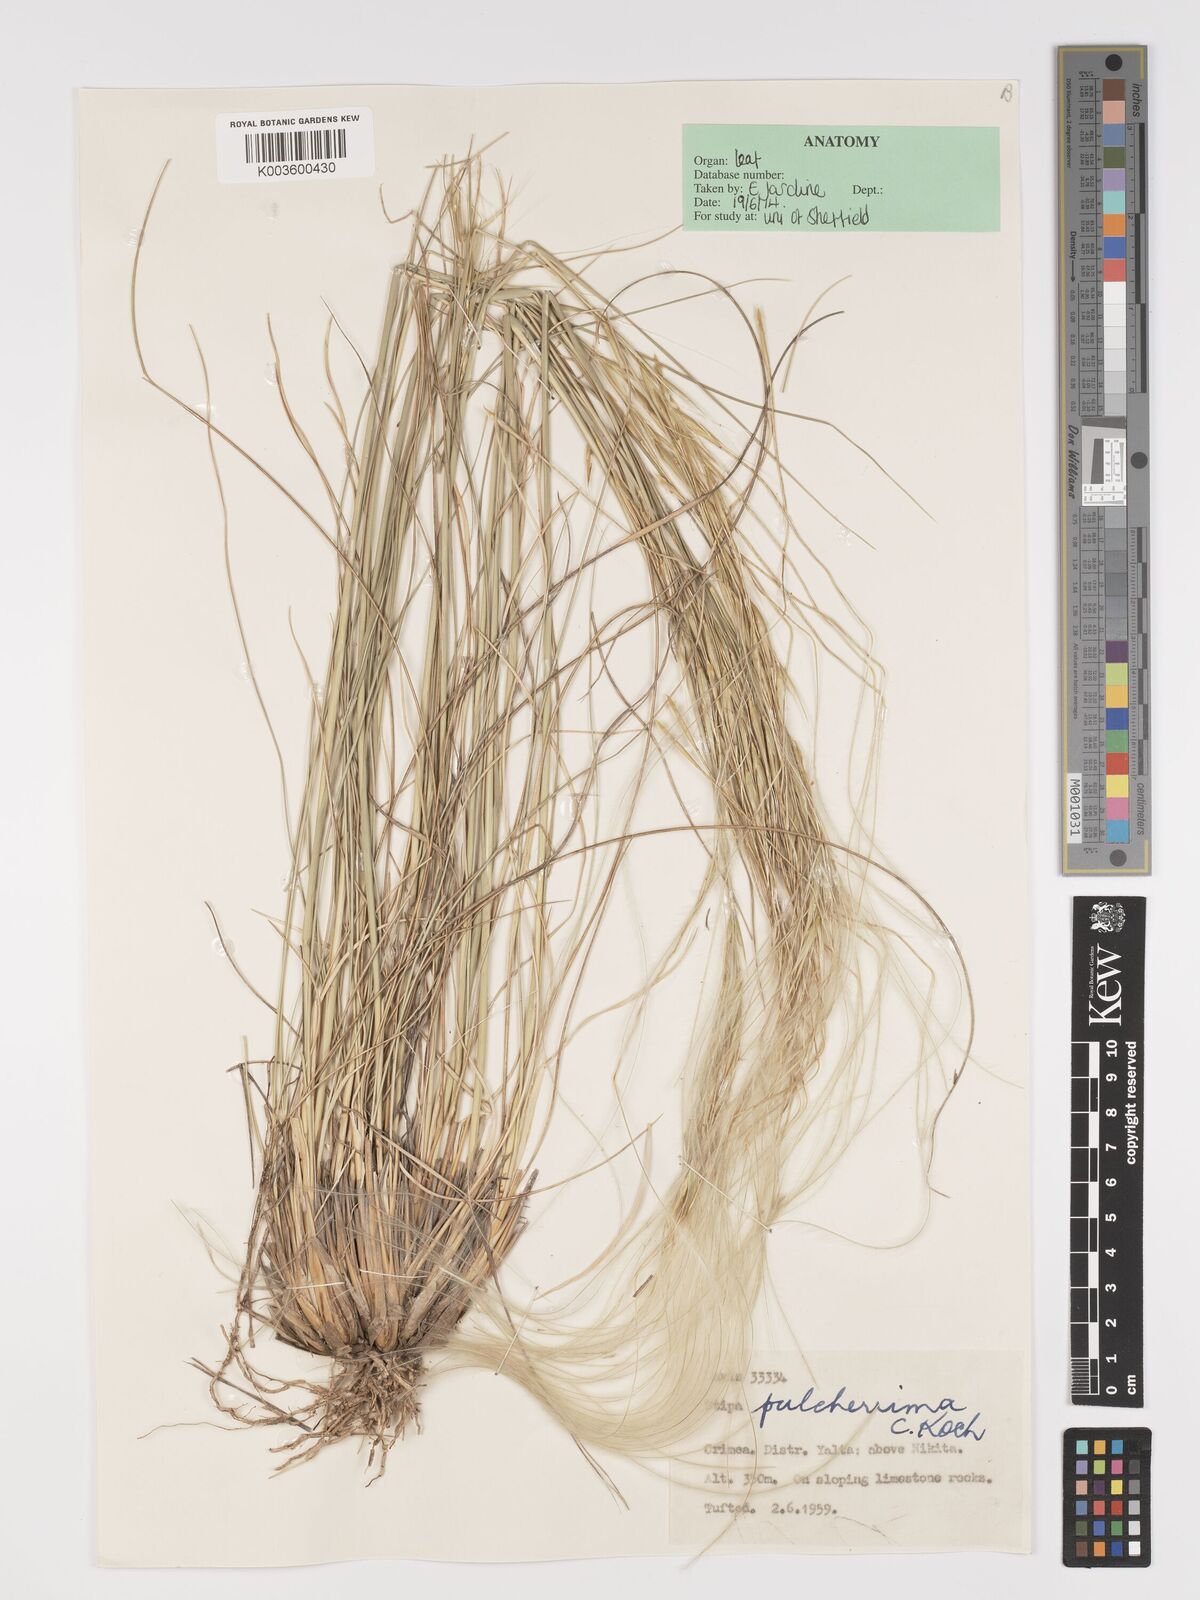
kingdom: Plantae
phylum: Tracheophyta
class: Liliopsida
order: Poales
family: Poaceae
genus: Stipa
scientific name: Stipa pulcherrima
